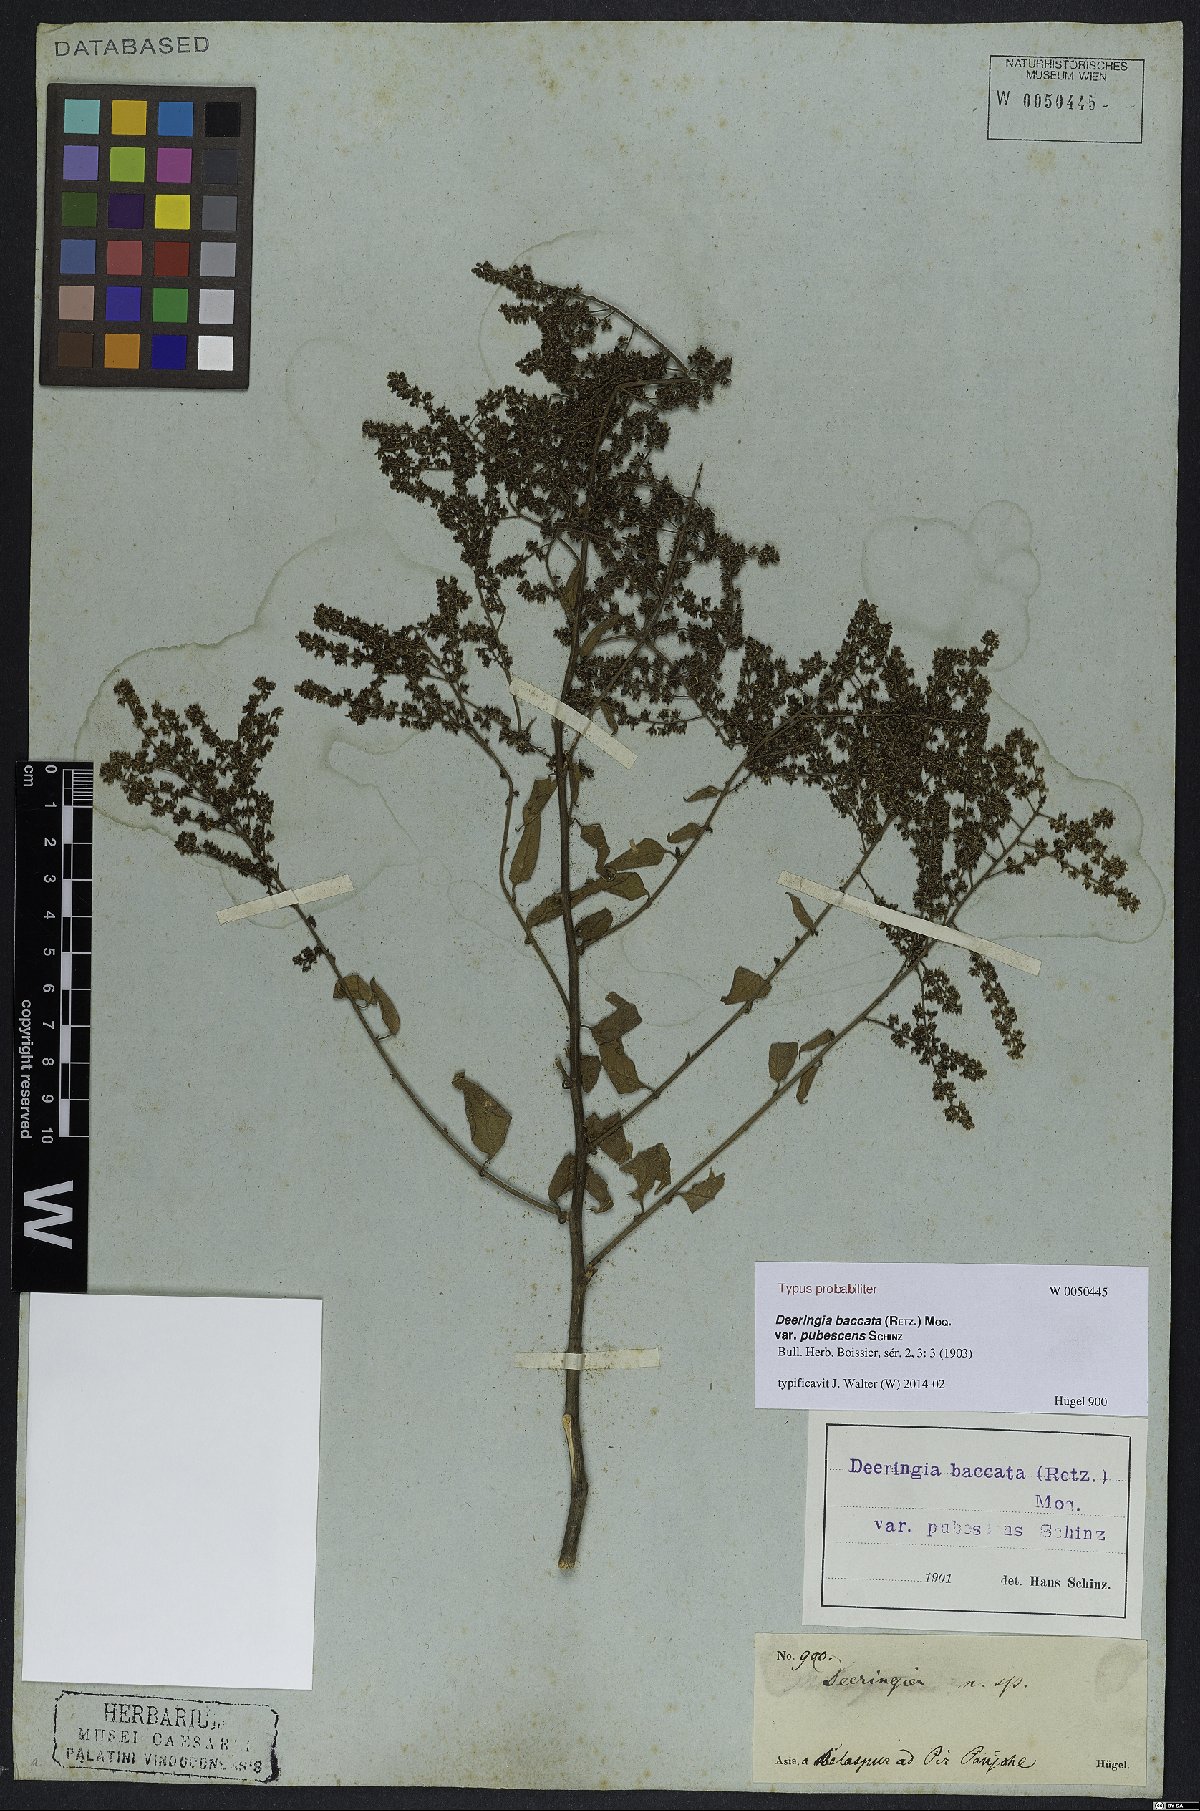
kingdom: Plantae
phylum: Tracheophyta
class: Magnoliopsida
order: Caryophyllales
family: Amaranthaceae
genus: Deeringia
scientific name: Deeringia amaranthoides
